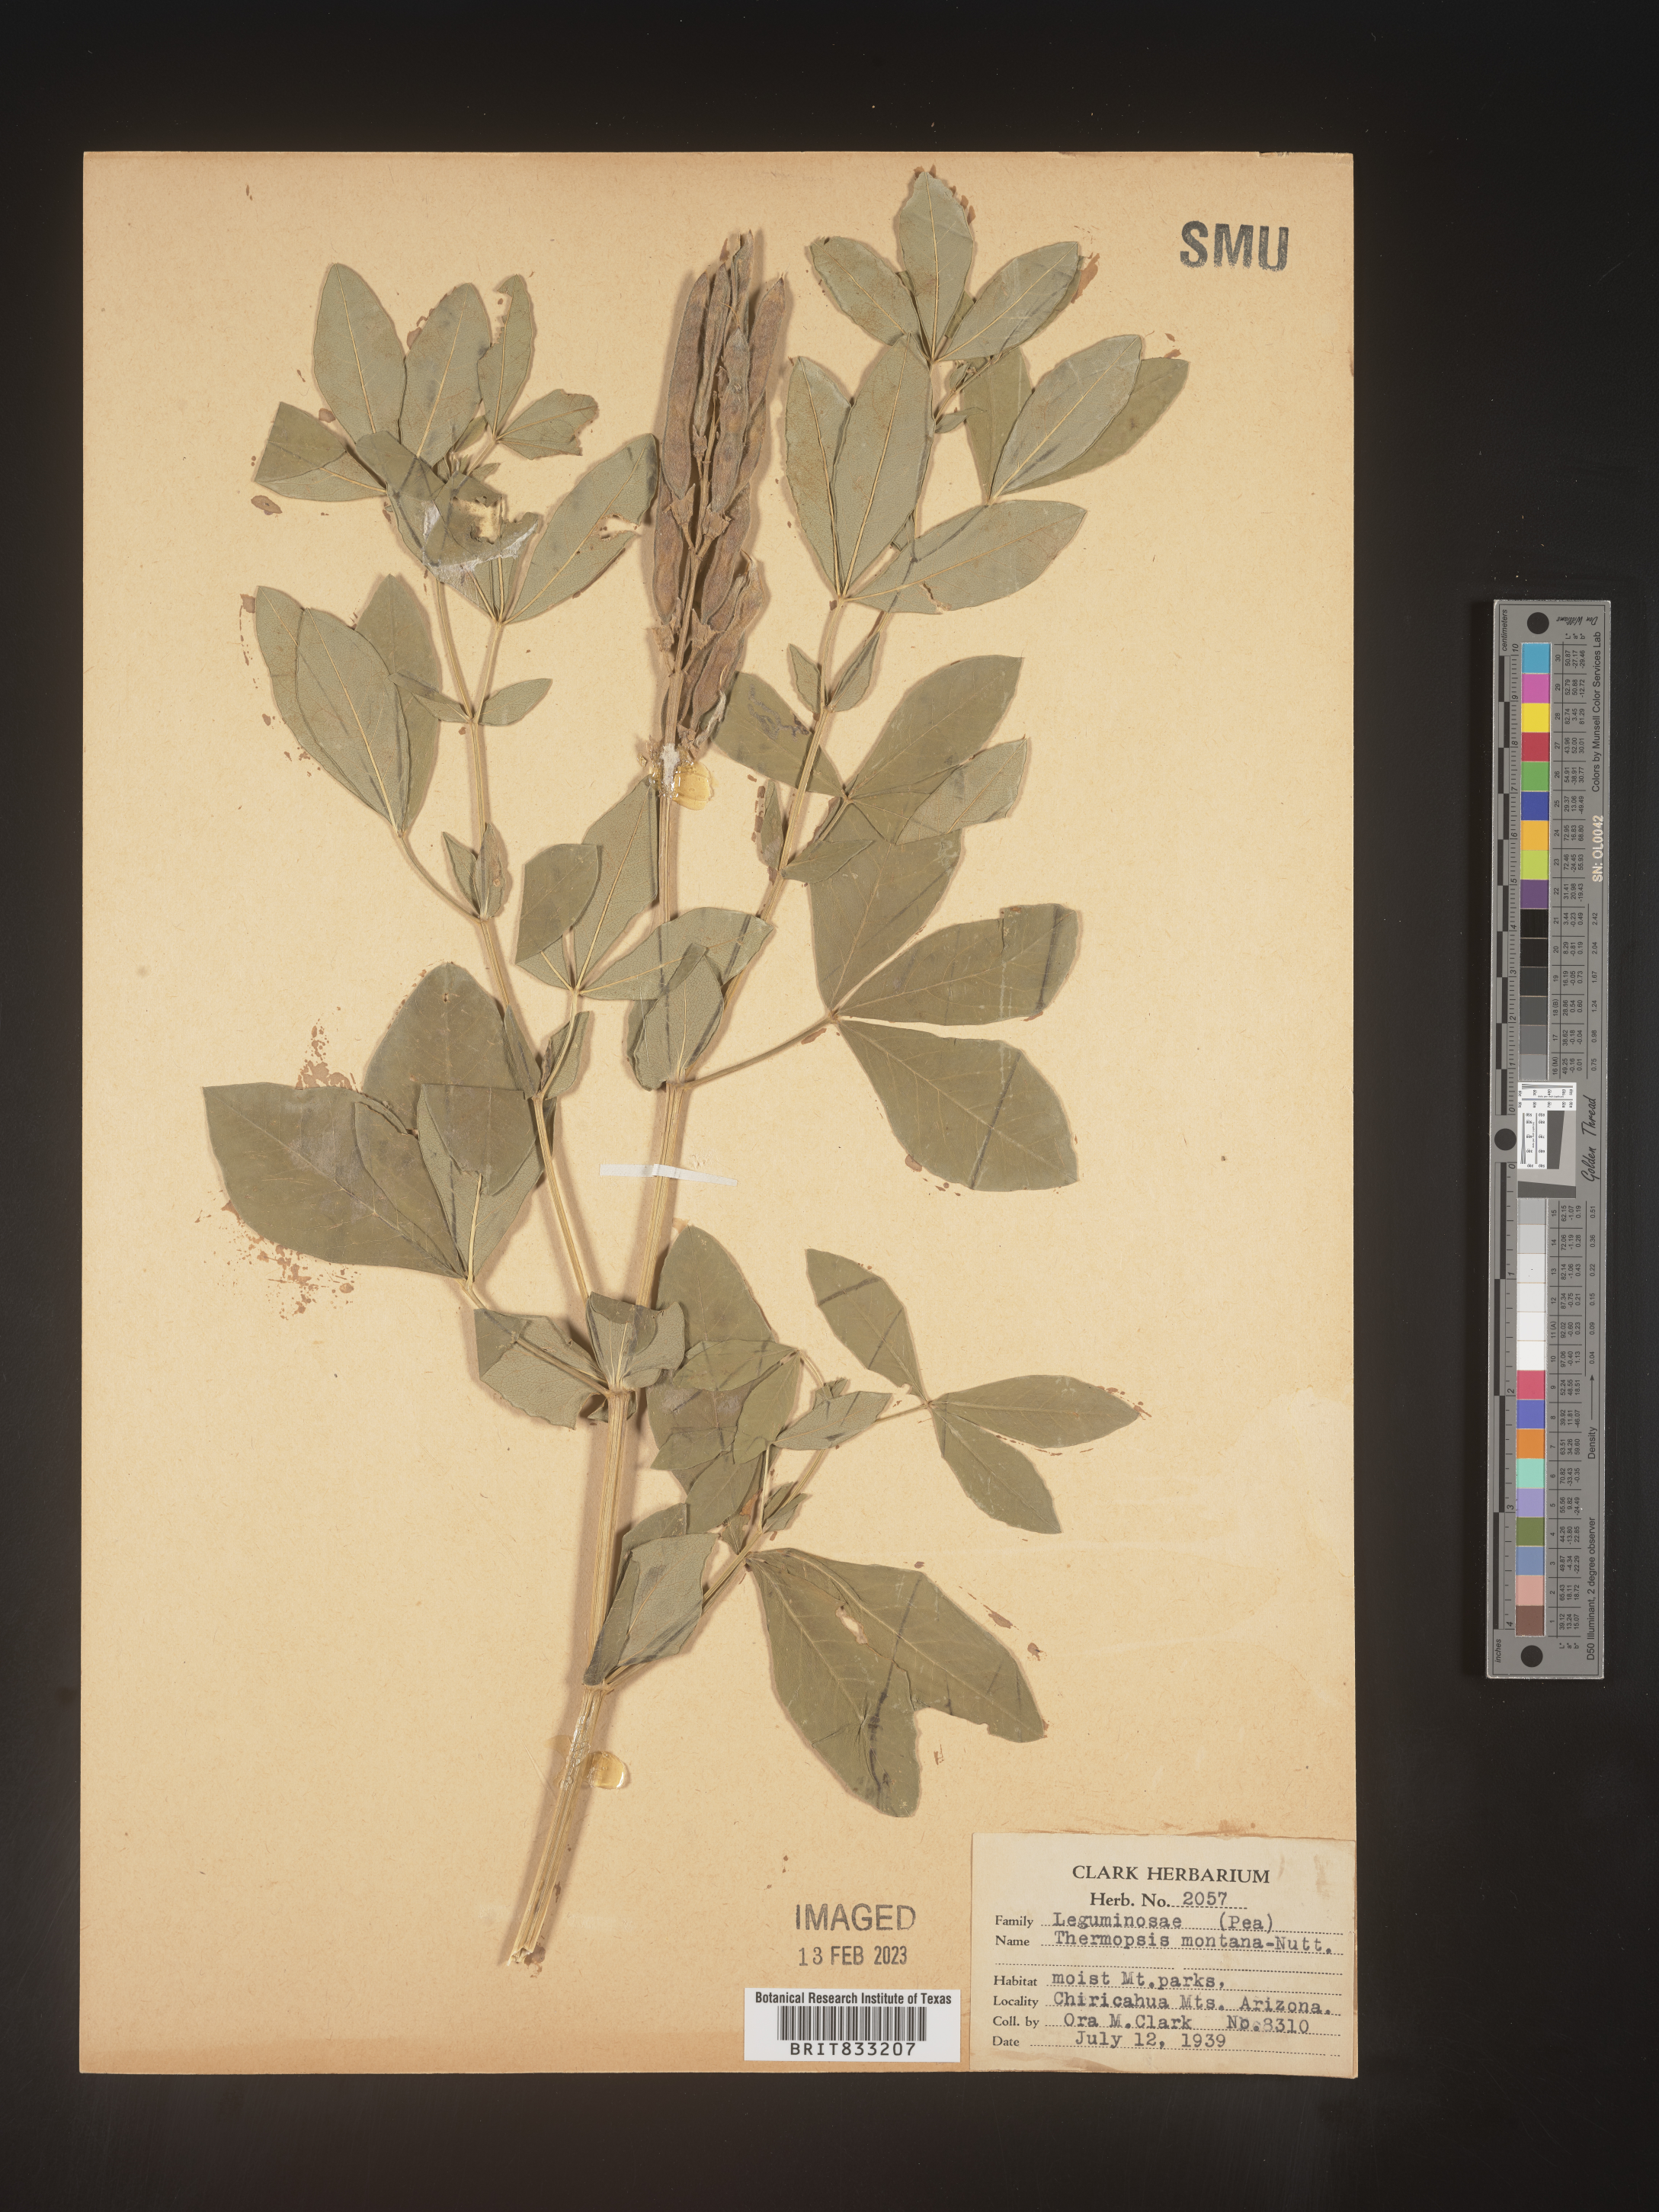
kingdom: Plantae
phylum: Tracheophyta
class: Magnoliopsida
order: Fabales
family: Fabaceae
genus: Thermopsis
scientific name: Thermopsis montana
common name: False lupin
